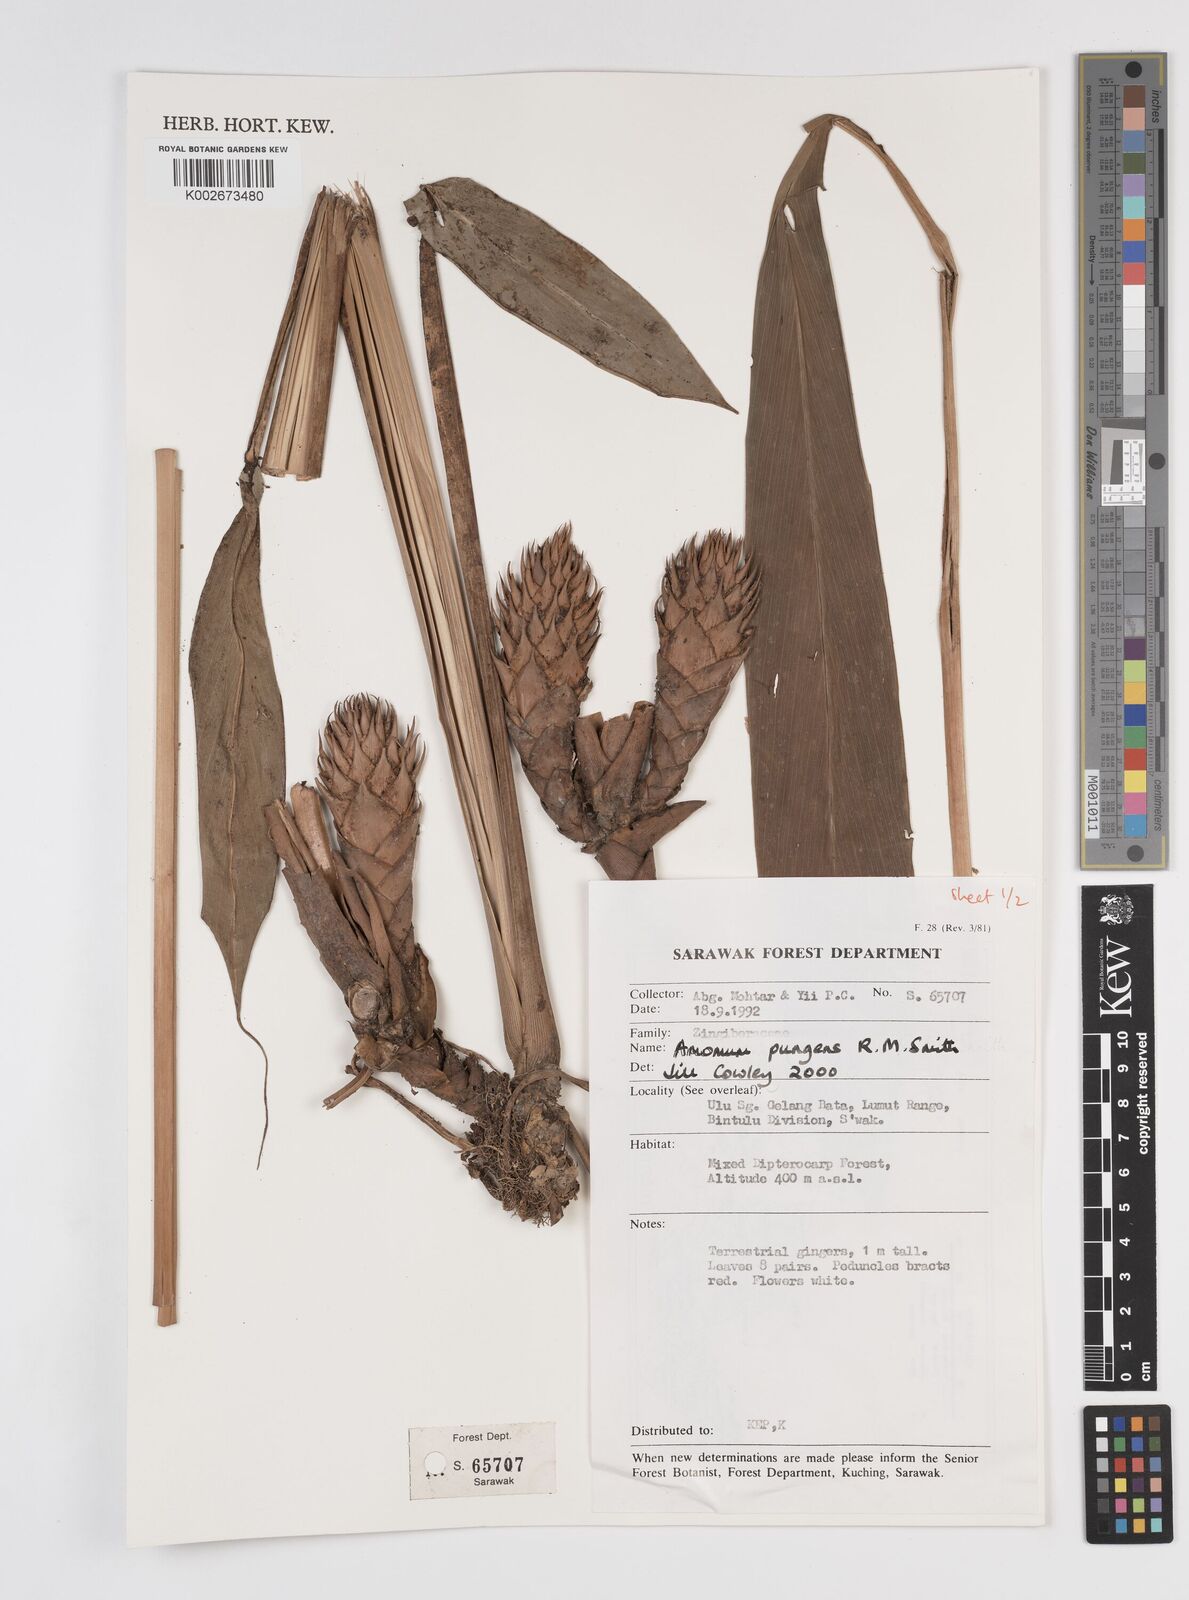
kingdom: Plantae
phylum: Tracheophyta
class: Liliopsida
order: Zingiberales
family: Zingiberaceae
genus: Epiamomum
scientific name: Epiamomum pungens
